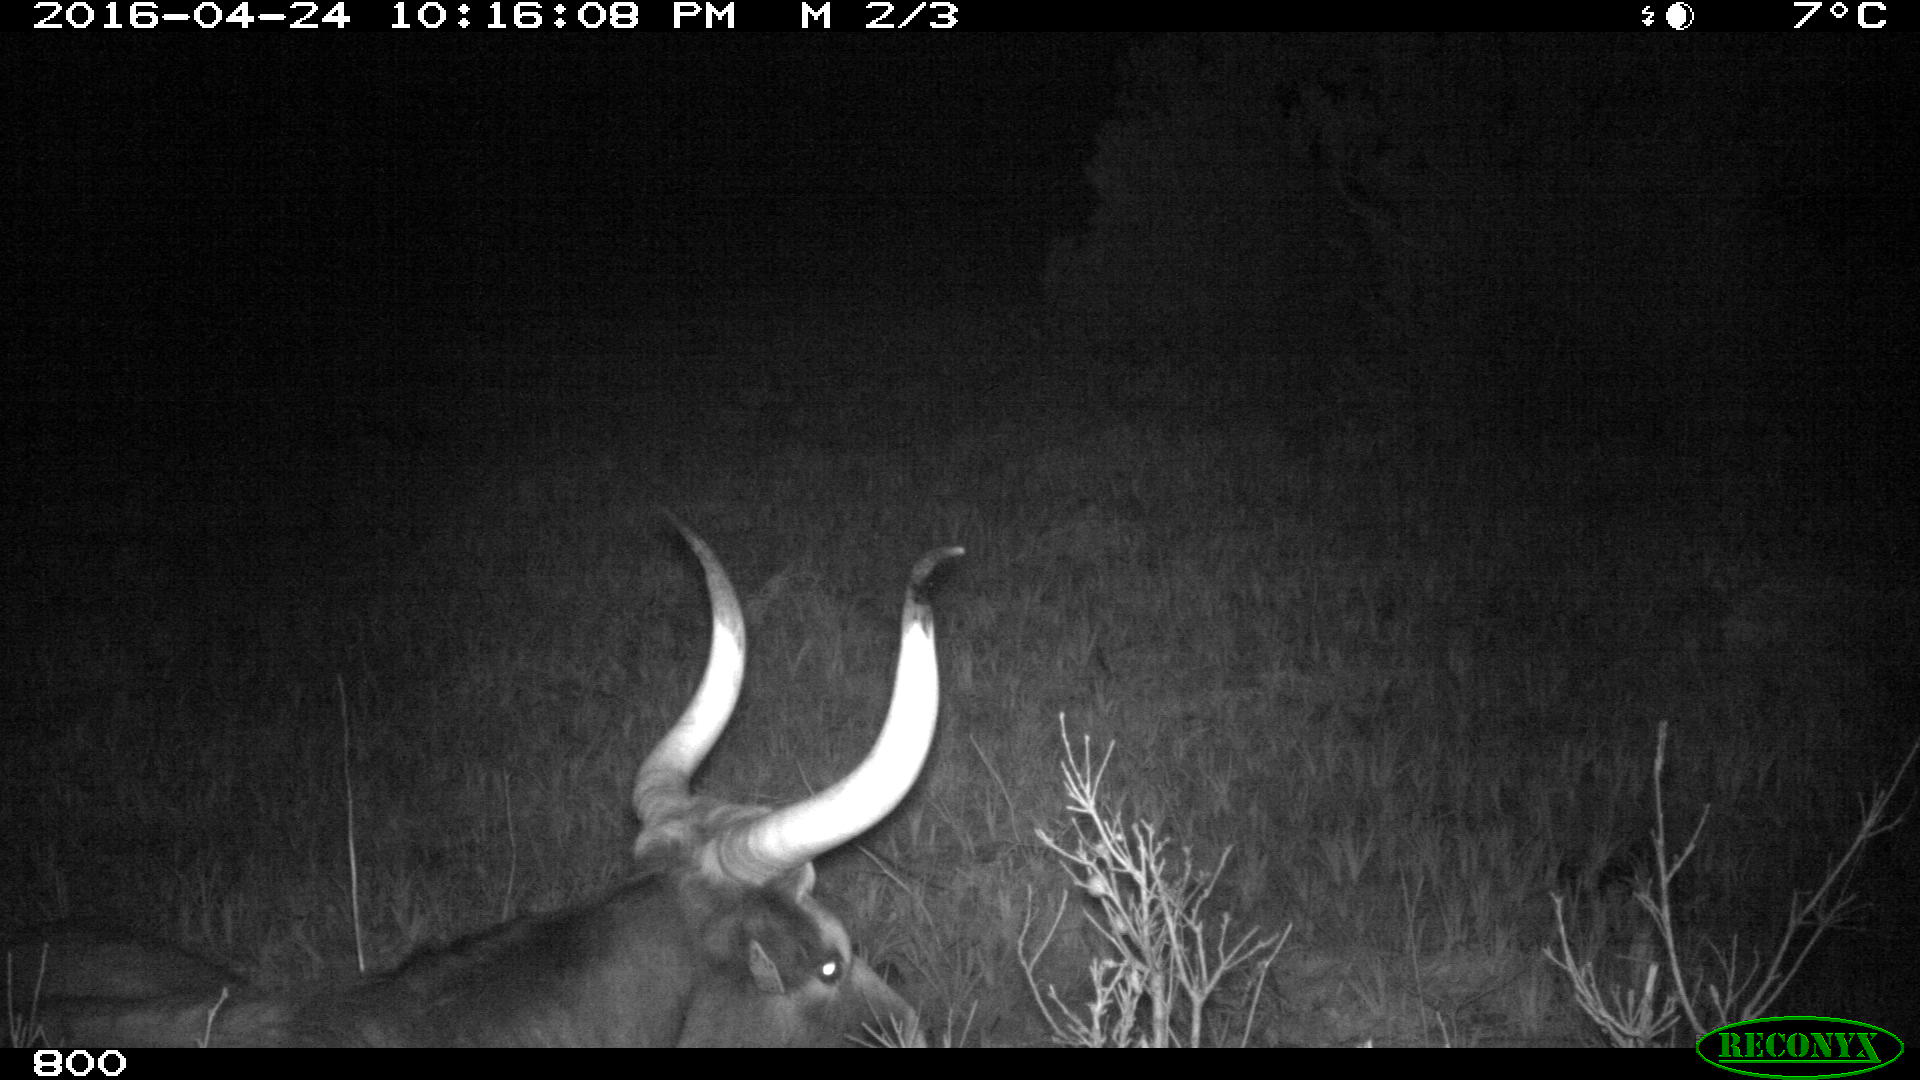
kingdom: Animalia
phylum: Chordata
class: Mammalia
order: Artiodactyla
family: Bovidae
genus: Bos
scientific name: Bos taurus
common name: Domesticated cattle
